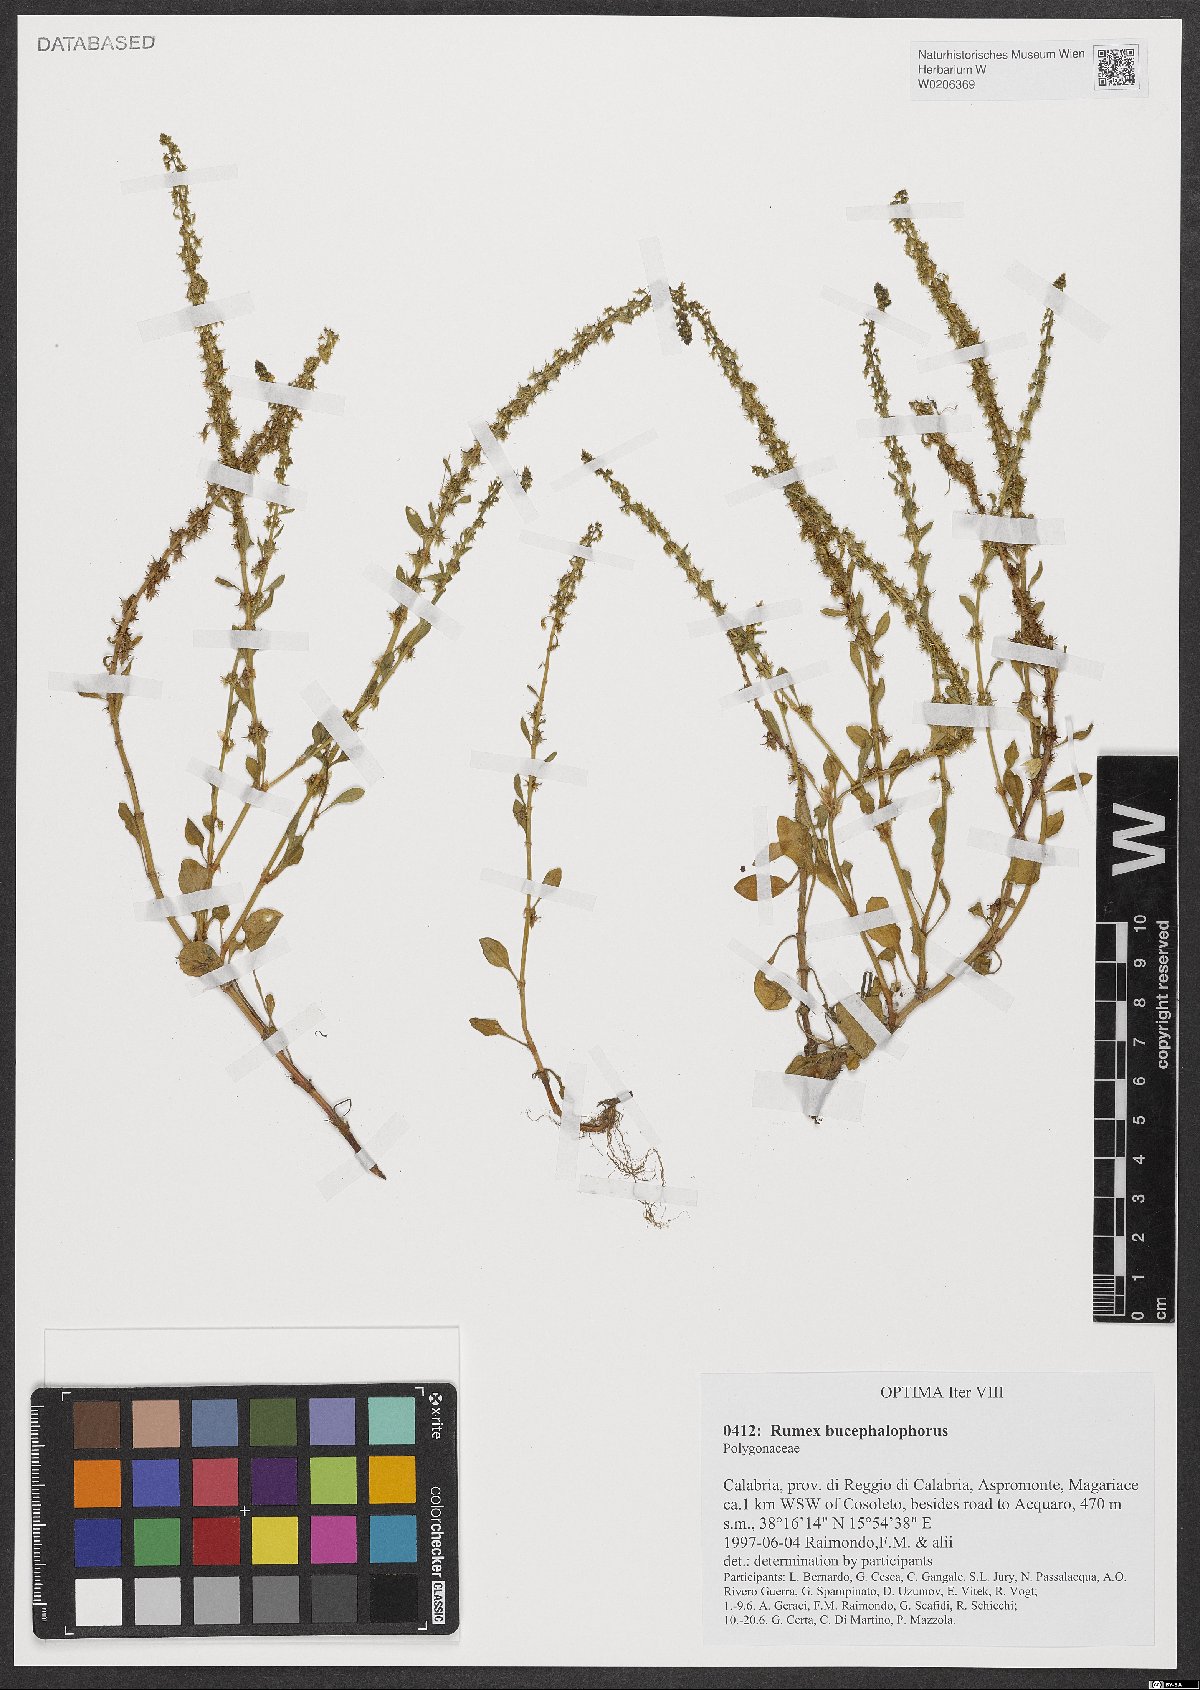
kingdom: Plantae
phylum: Tracheophyta
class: Magnoliopsida
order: Caryophyllales
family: Polygonaceae
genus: Rumex
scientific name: Rumex bucephalophorus
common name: Red dock
